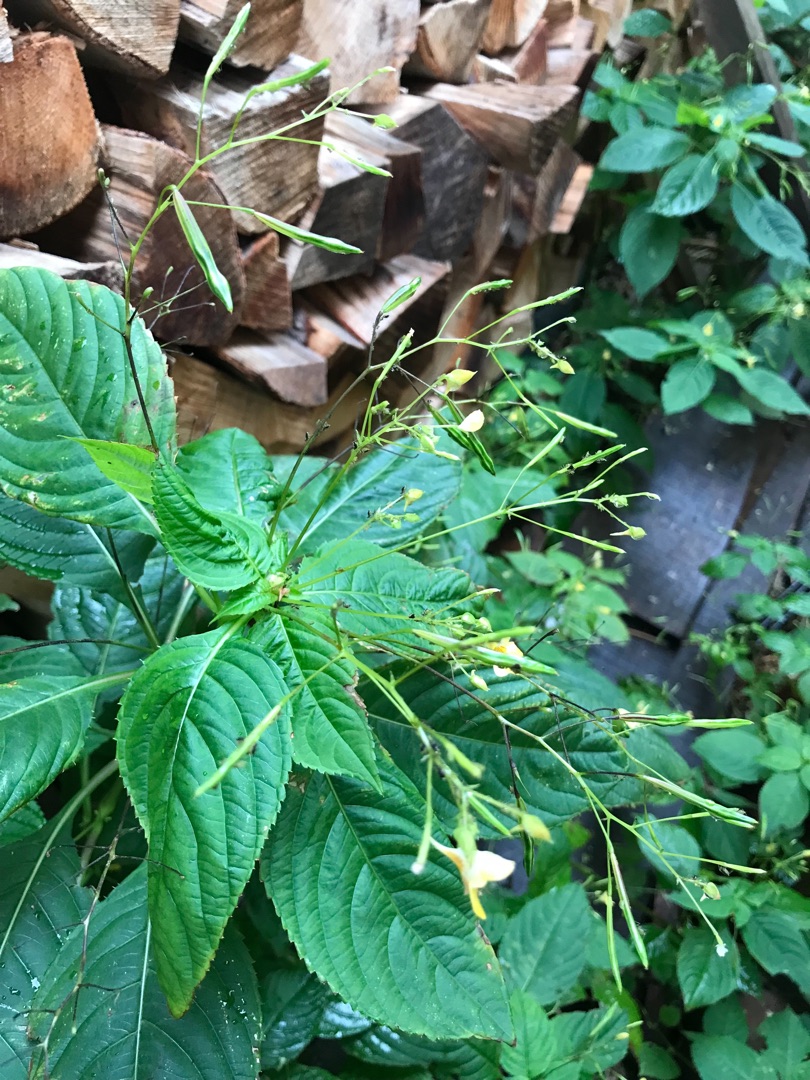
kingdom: Plantae
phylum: Tracheophyta
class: Magnoliopsida
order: Ericales
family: Balsaminaceae
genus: Impatiens
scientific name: Impatiens parviflora
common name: Småblomstret balsamin
